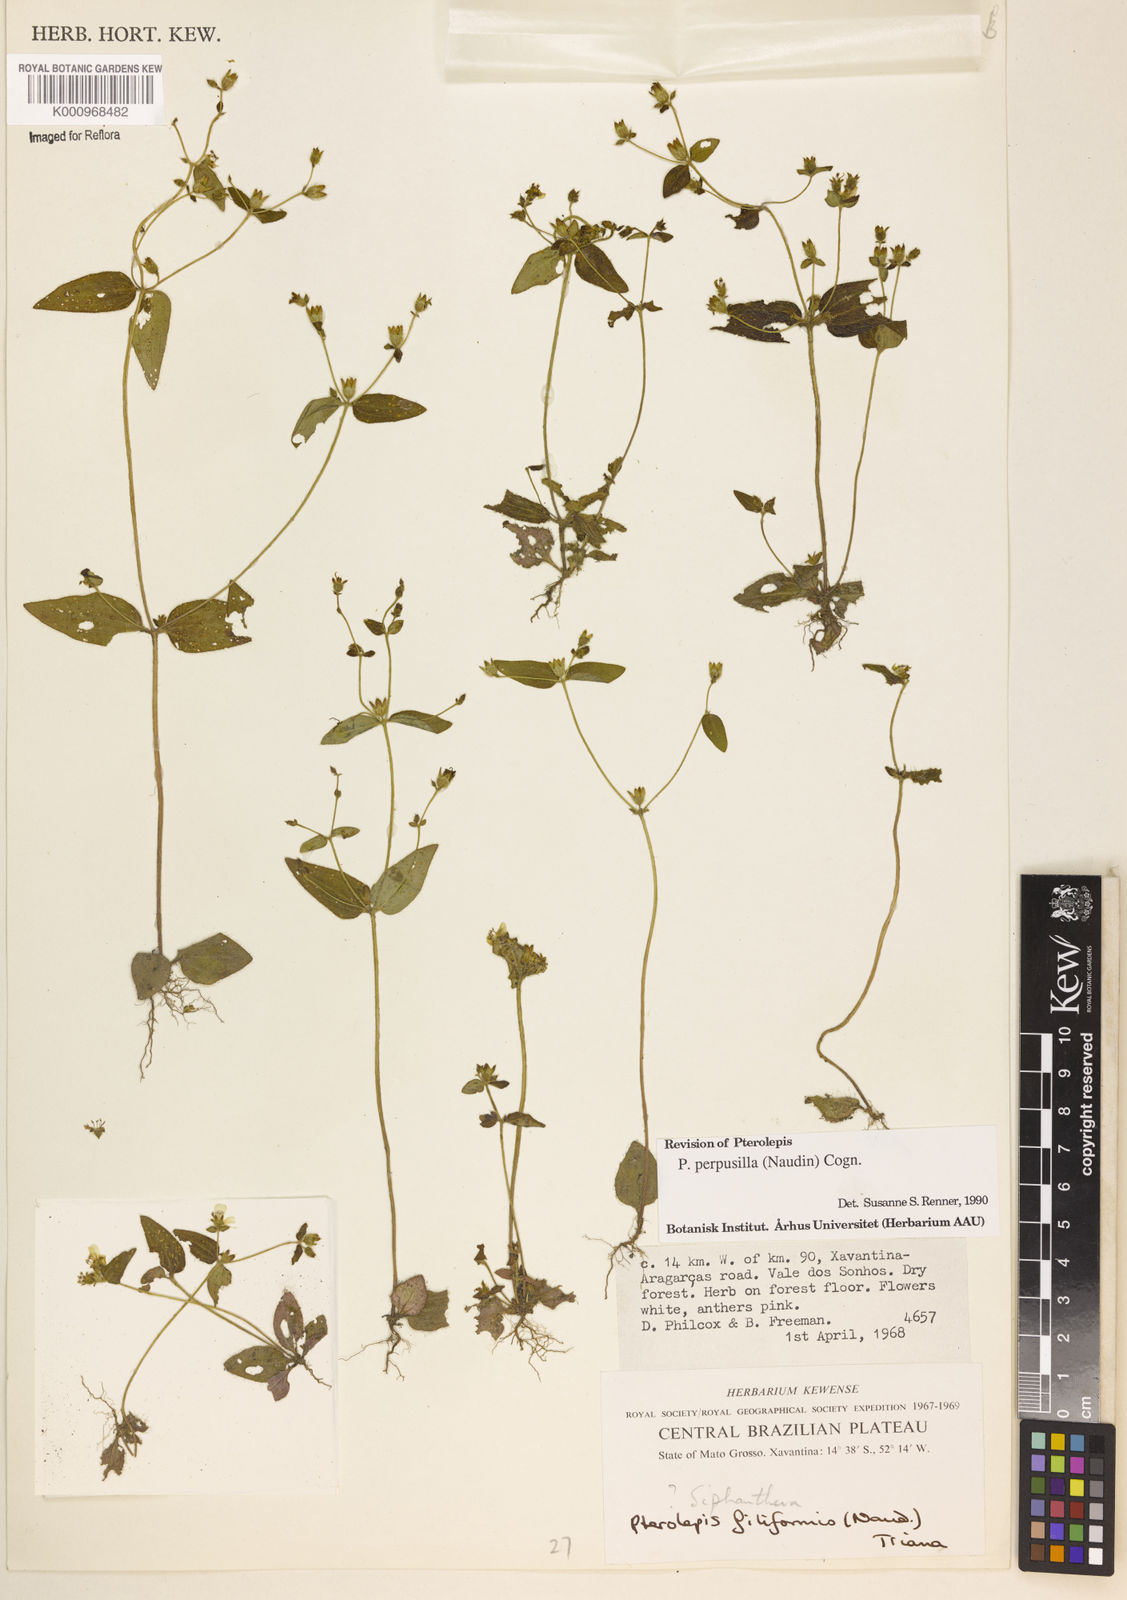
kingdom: Plantae
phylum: Tracheophyta
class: Magnoliopsida
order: Myrtales
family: Melastomataceae
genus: Pterolepis
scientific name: Pterolepis perpusilla
